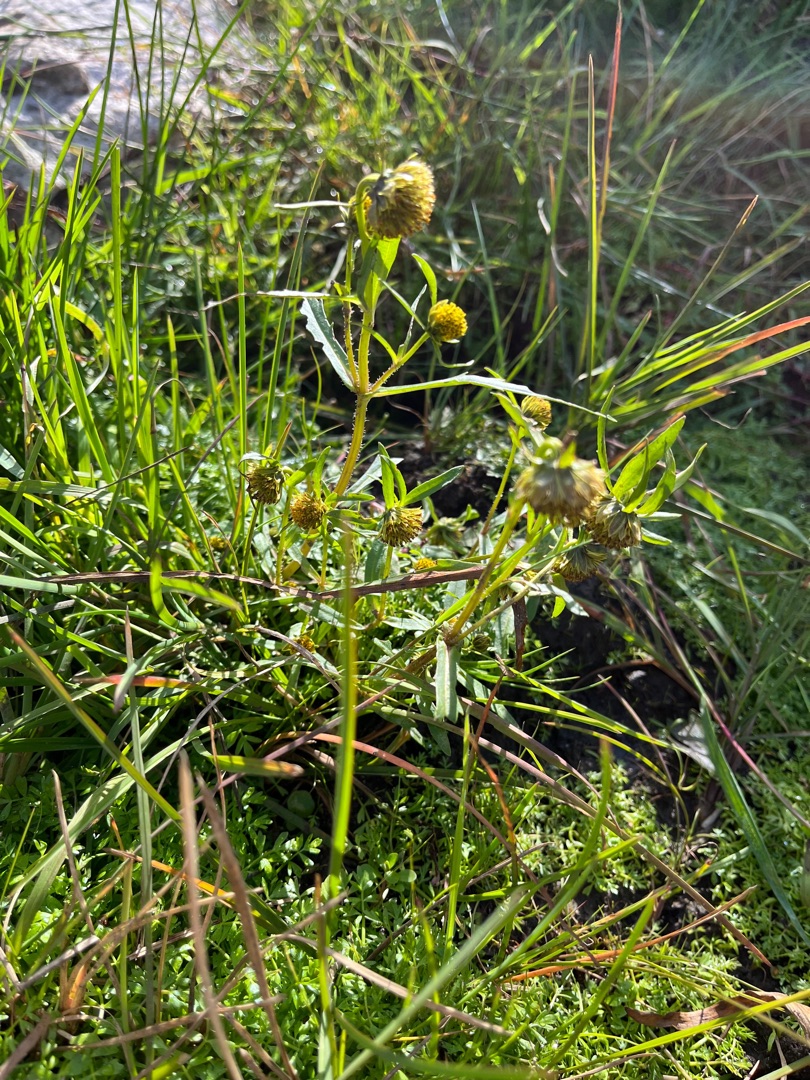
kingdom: Plantae
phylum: Tracheophyta
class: Magnoliopsida
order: Asterales
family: Asteraceae
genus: Bidens
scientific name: Bidens cernua
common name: Nikkende brøndsel
